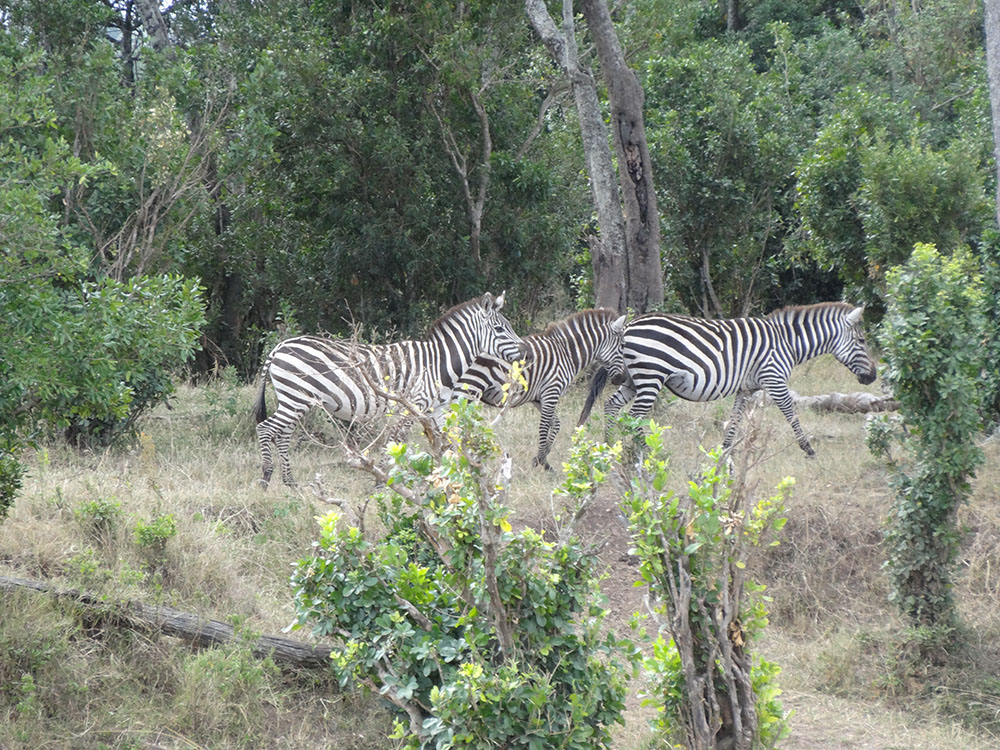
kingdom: Animalia
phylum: Chordata
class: Mammalia
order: Perissodactyla
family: Equidae
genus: Equus
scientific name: Equus quagga
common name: Plains zebra
